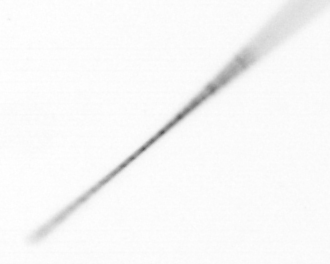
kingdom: Chromista
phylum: Ochrophyta
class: Bacillariophyceae
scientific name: Bacillariophyceae
